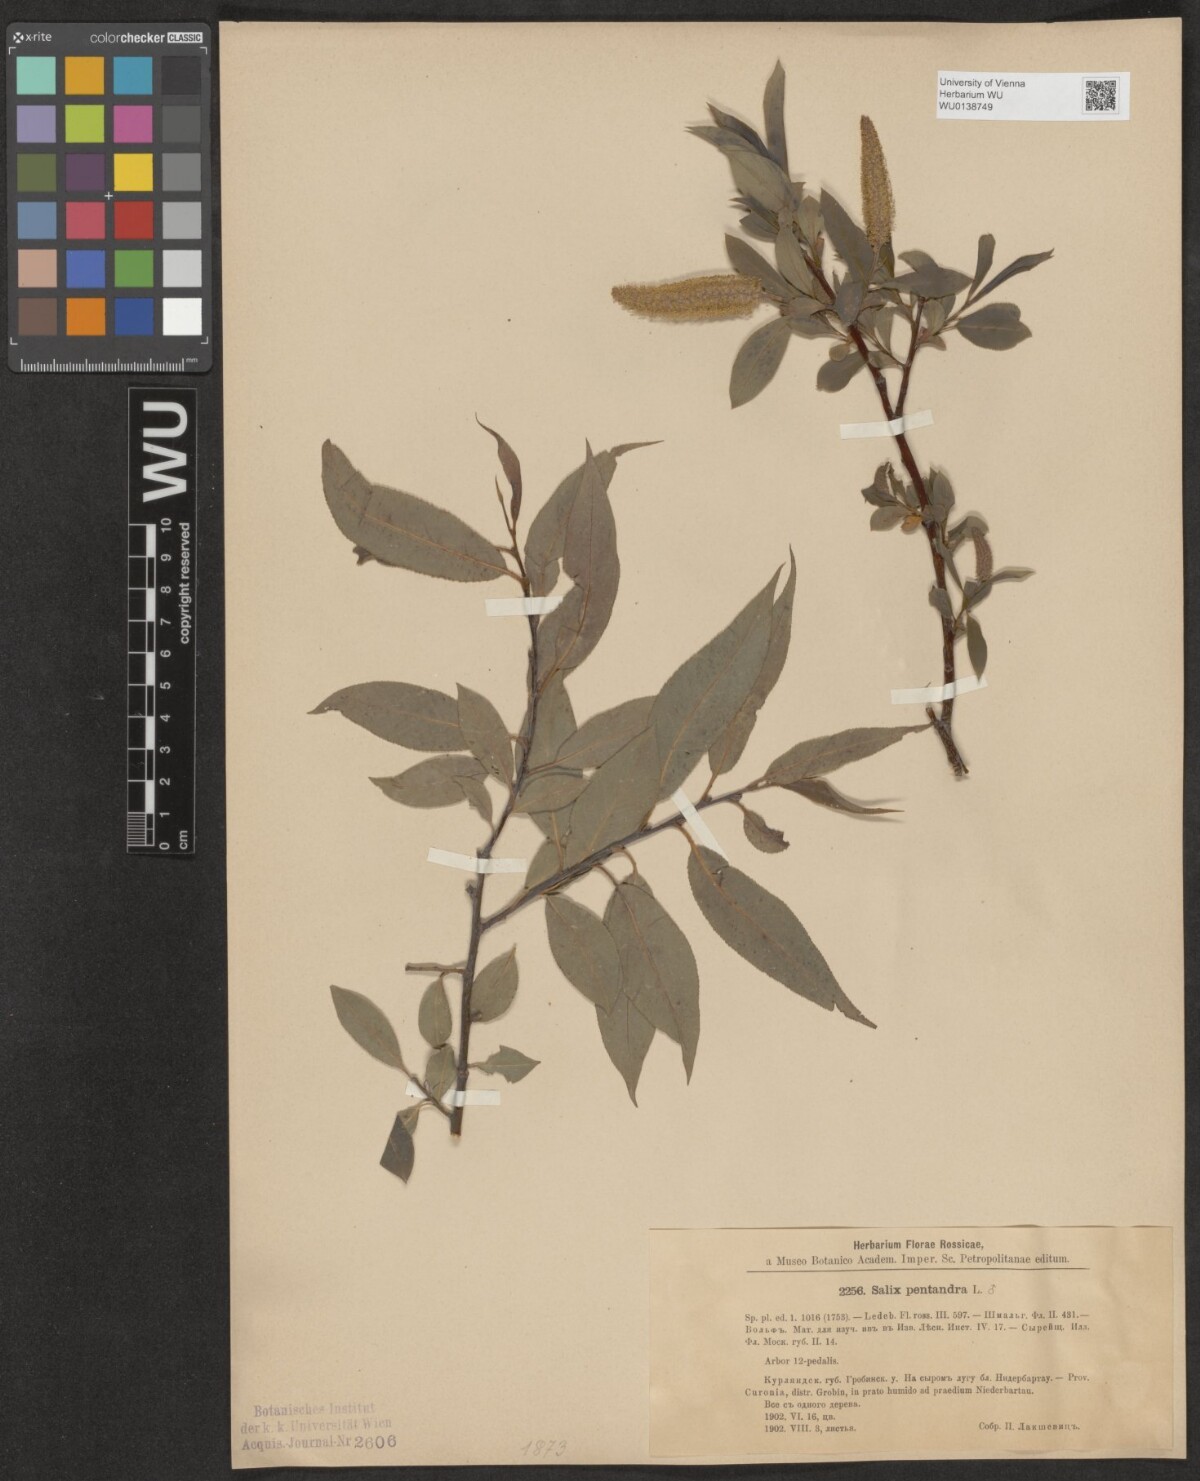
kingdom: Plantae
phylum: Tracheophyta
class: Magnoliopsida
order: Malpighiales
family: Salicaceae
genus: Salix
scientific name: Salix pentandra
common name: Bay willow
